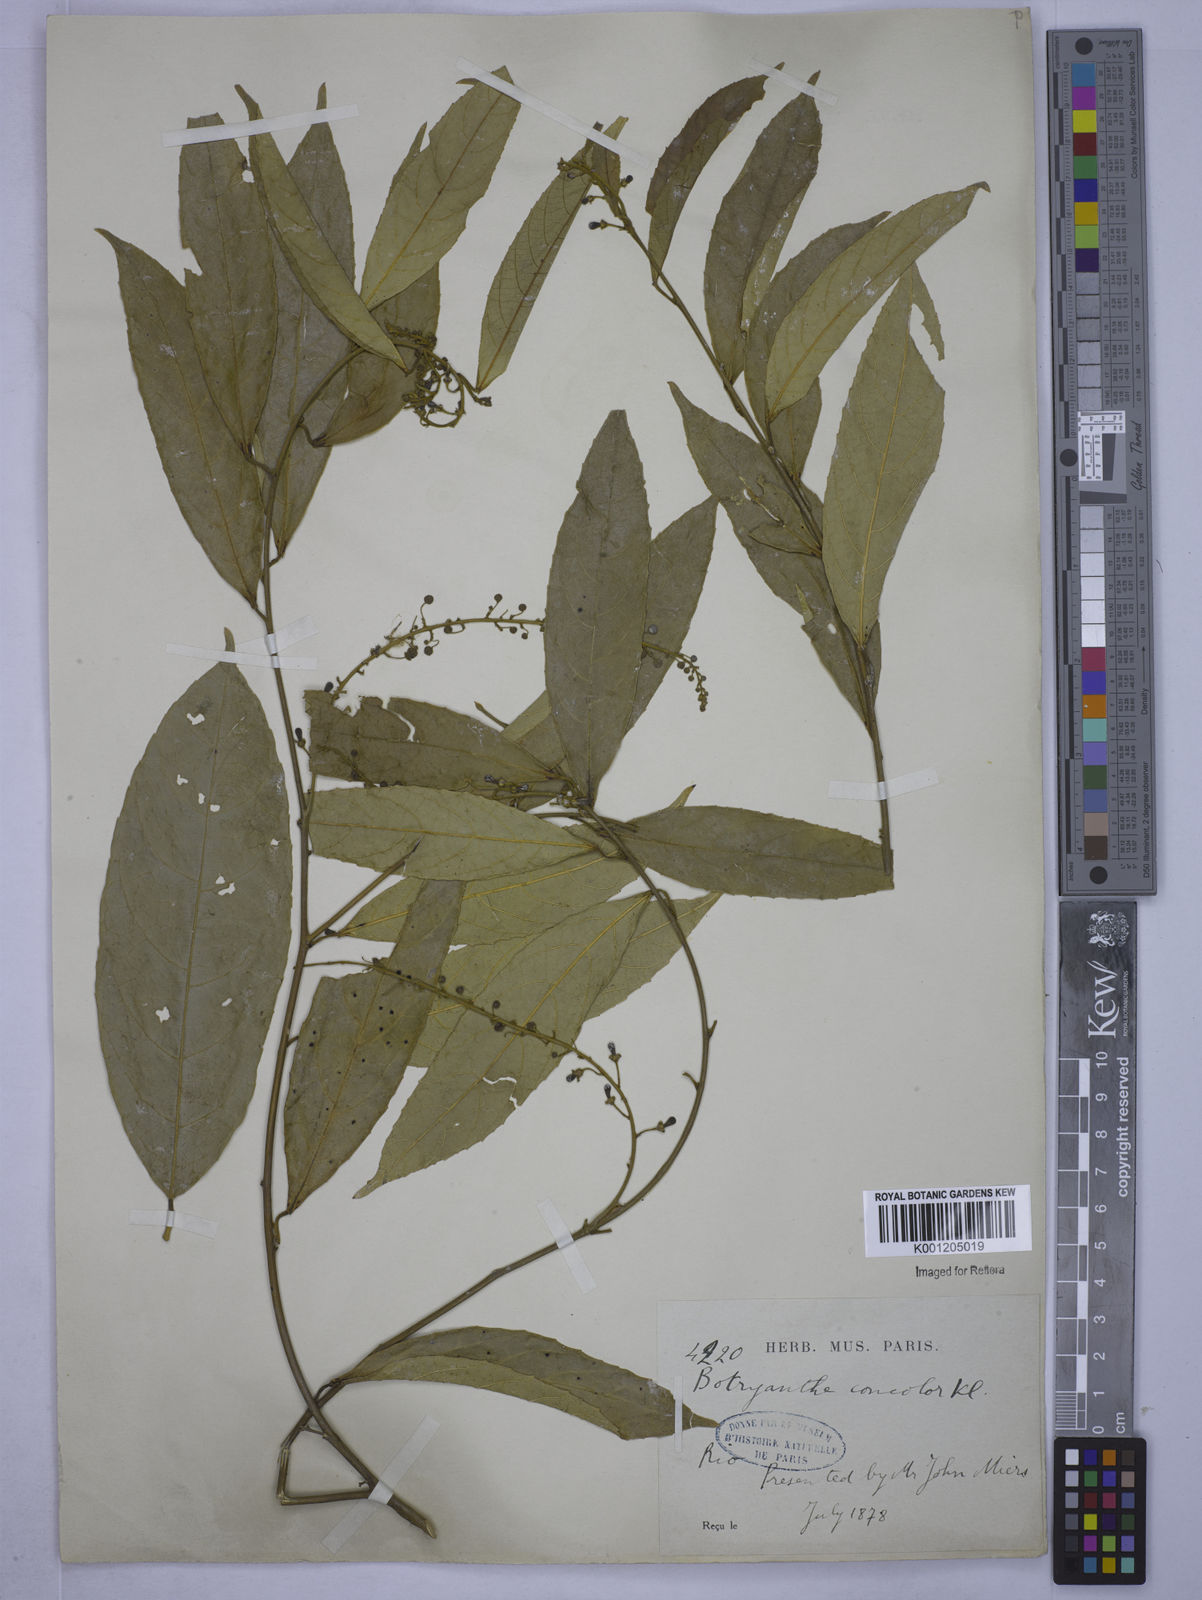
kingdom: Plantae
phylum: Tracheophyta
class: Magnoliopsida
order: Malpighiales
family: Euphorbiaceae
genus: Plukenetia
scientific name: Plukenetia serrata
